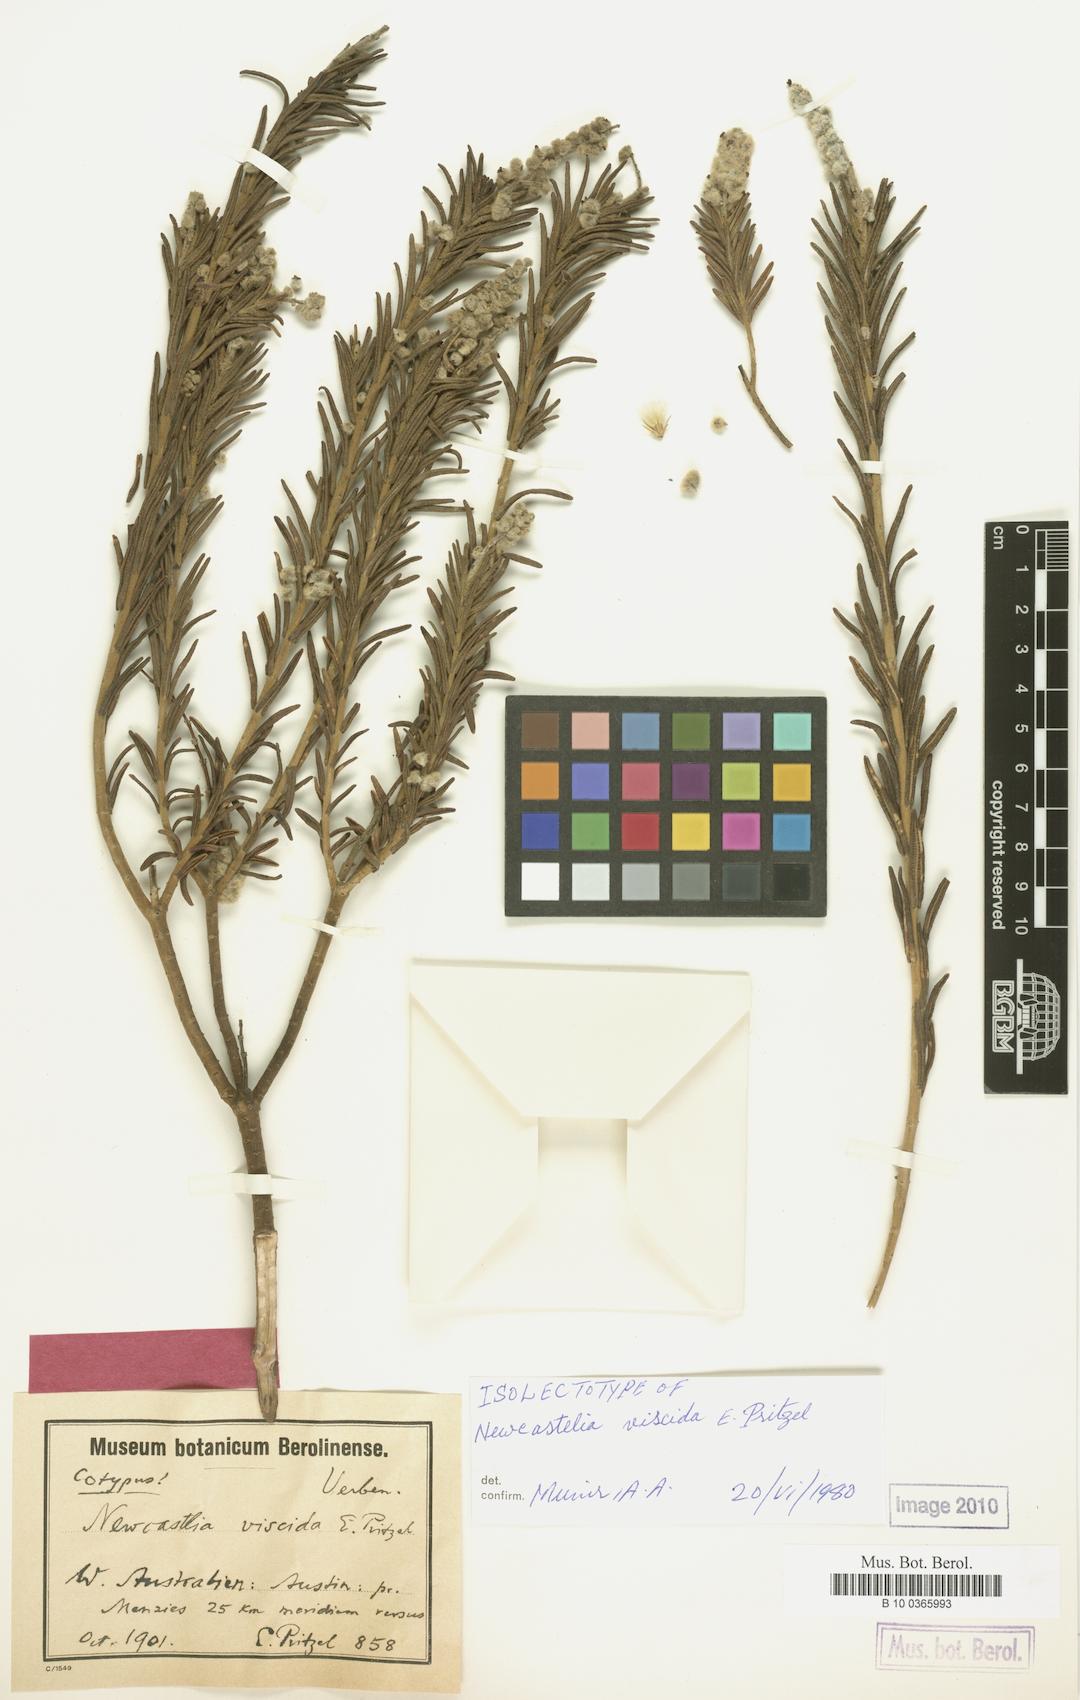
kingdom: Plantae
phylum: Tracheophyta
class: Magnoliopsida
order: Lamiales
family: Lamiaceae
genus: Apatelantha
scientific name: Apatelantha viscida
